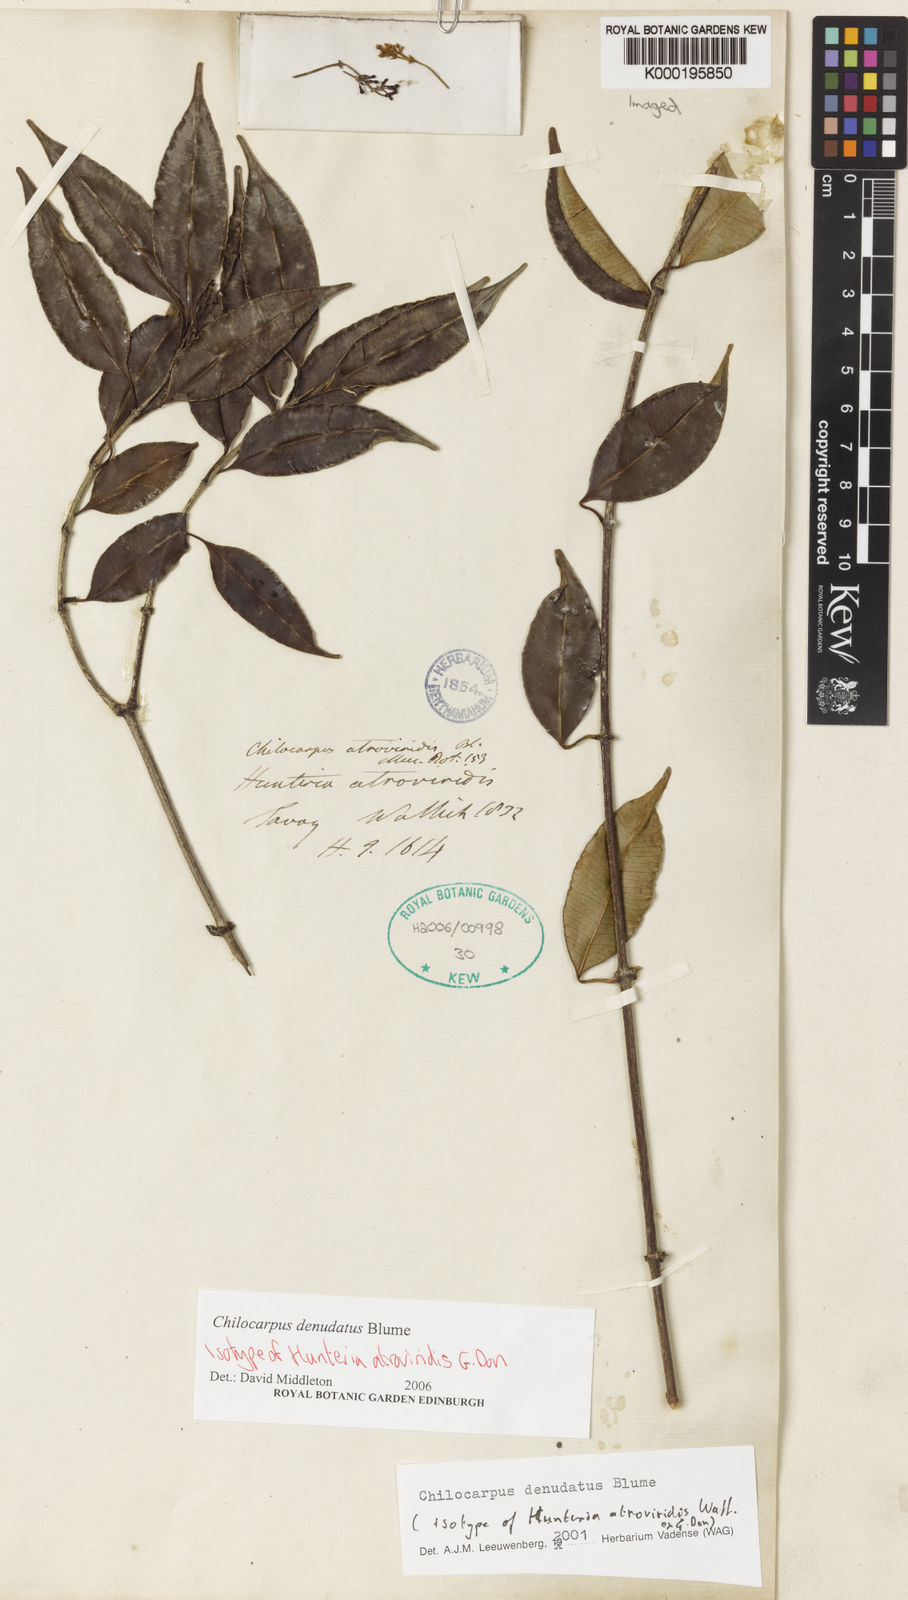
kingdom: Plantae
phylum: Tracheophyta
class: Magnoliopsida
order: Gentianales
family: Apocynaceae
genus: Chilocarpus
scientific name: Chilocarpus denudatus
